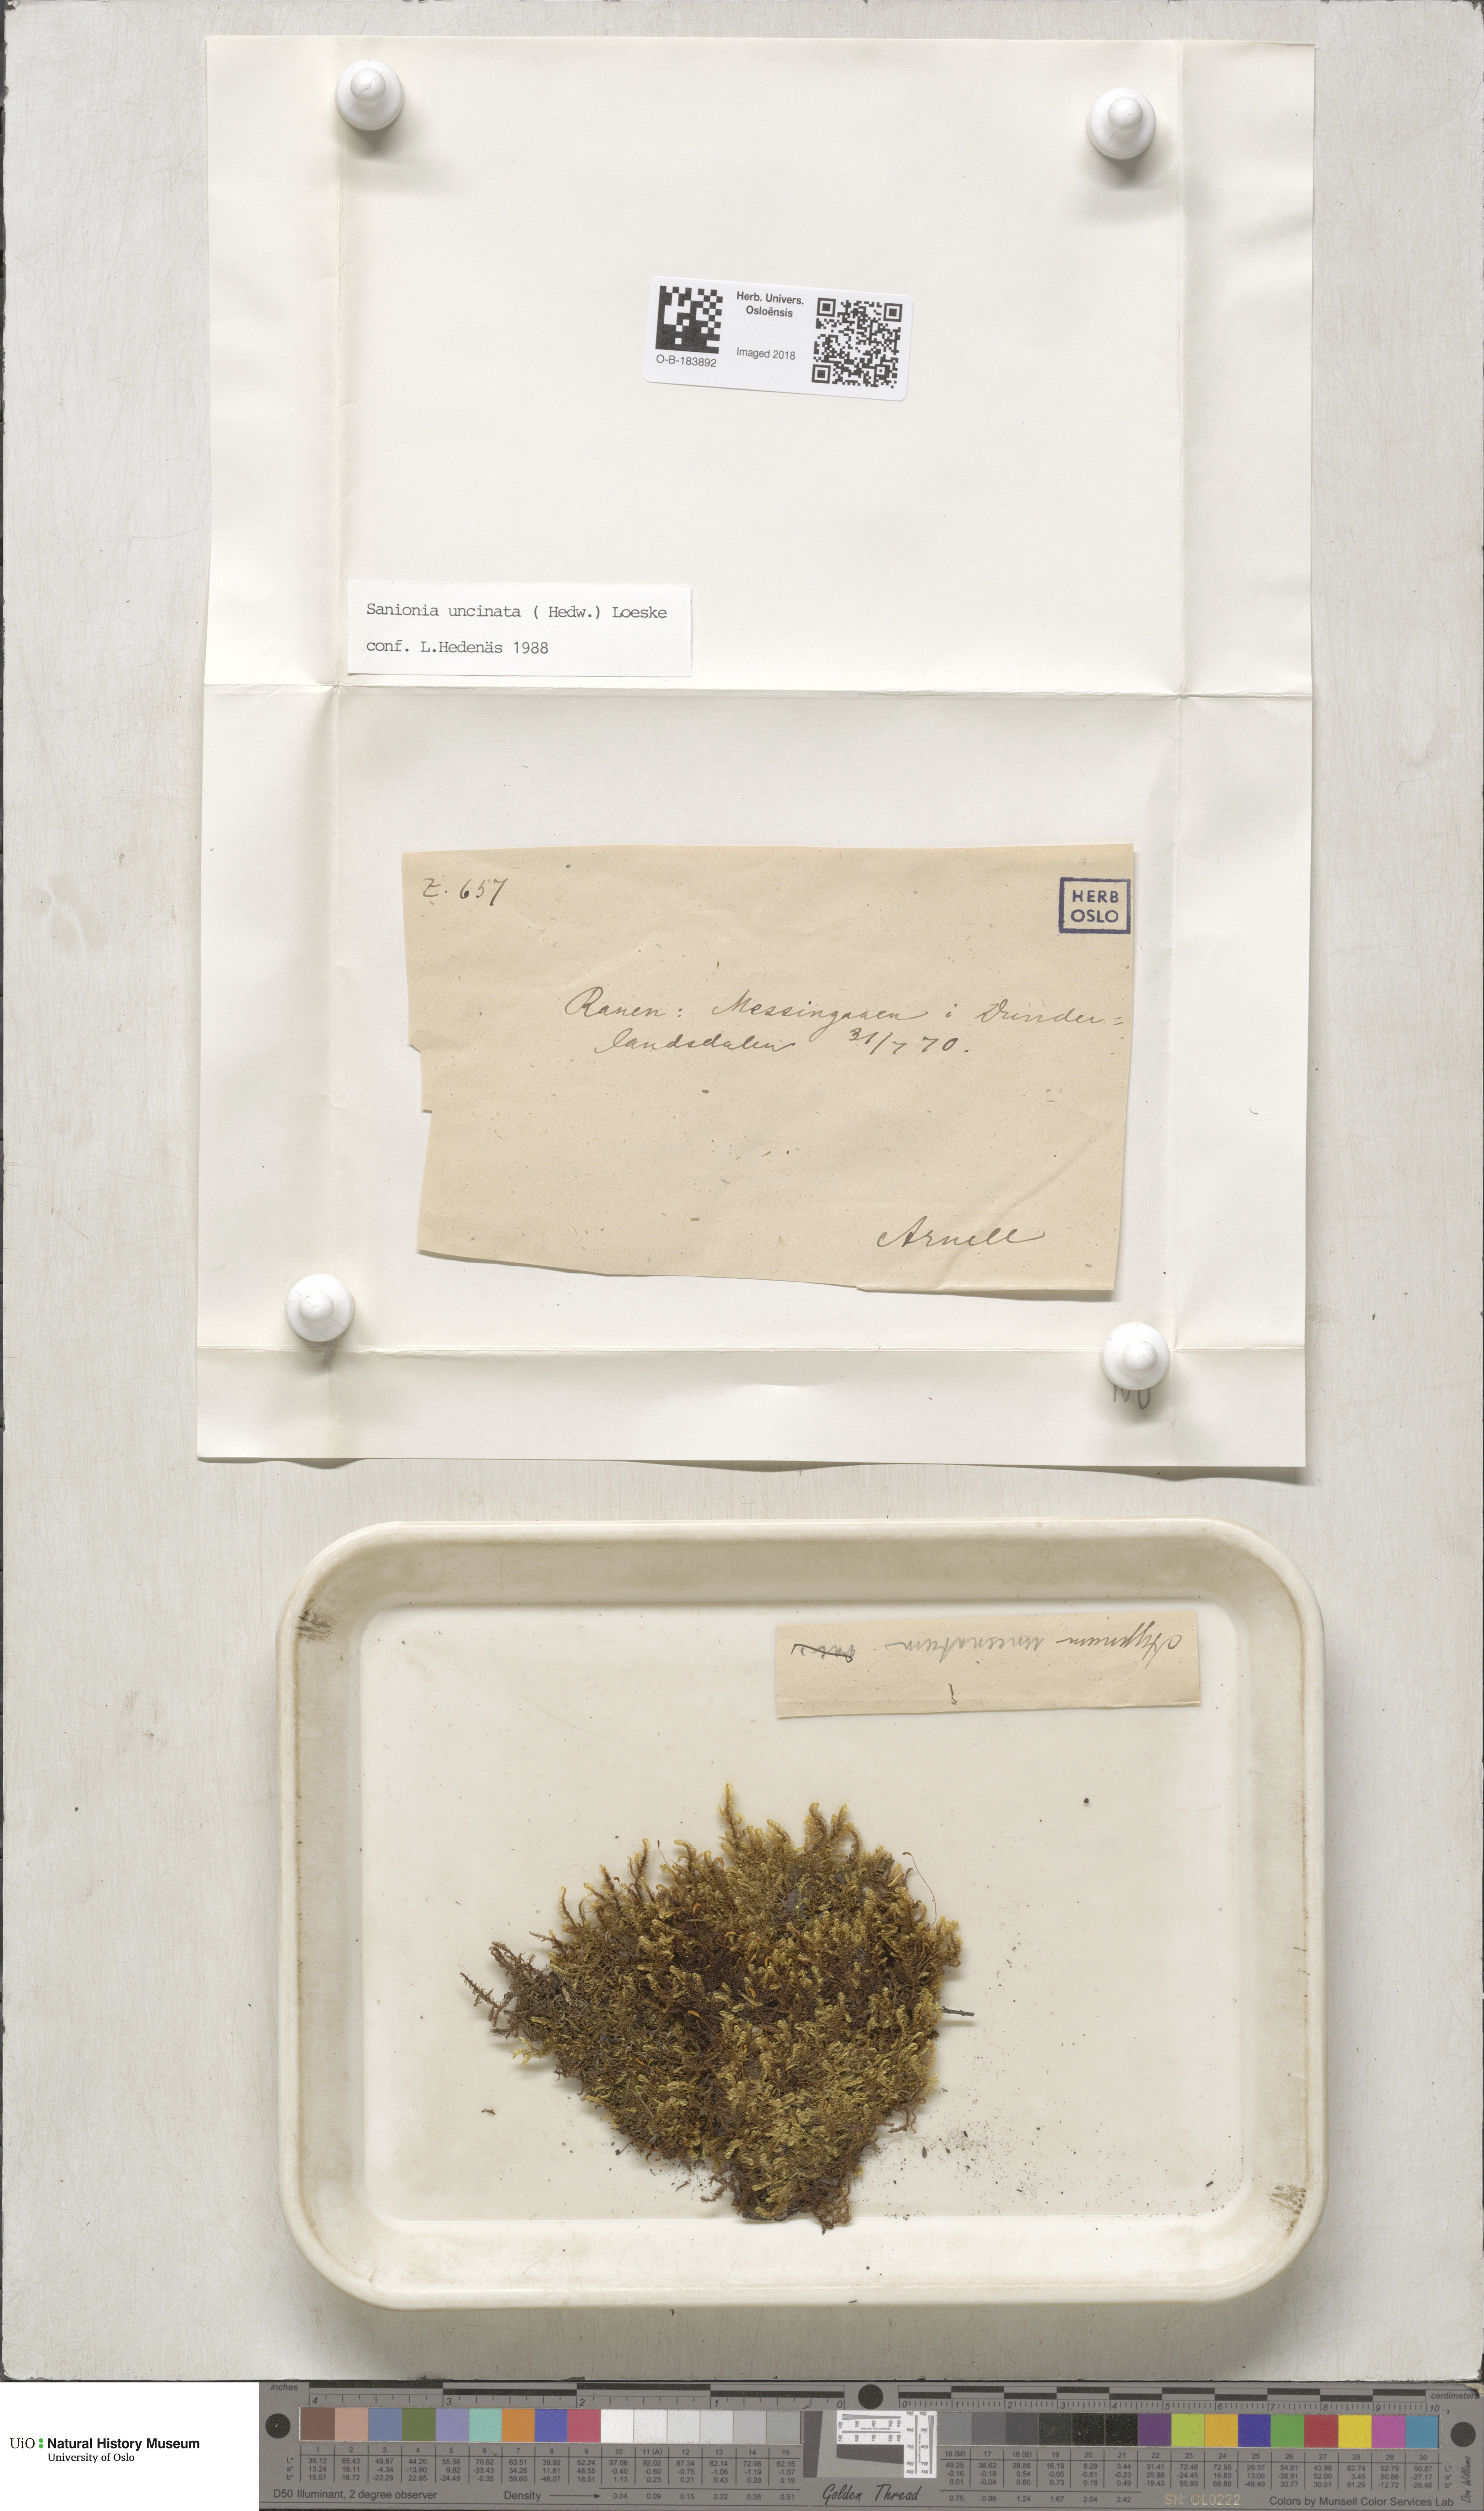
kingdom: Plantae
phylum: Bryophyta
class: Bryopsida
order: Hypnales
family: Scorpidiaceae
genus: Sanionia
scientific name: Sanionia uncinata
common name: Sickle moss
